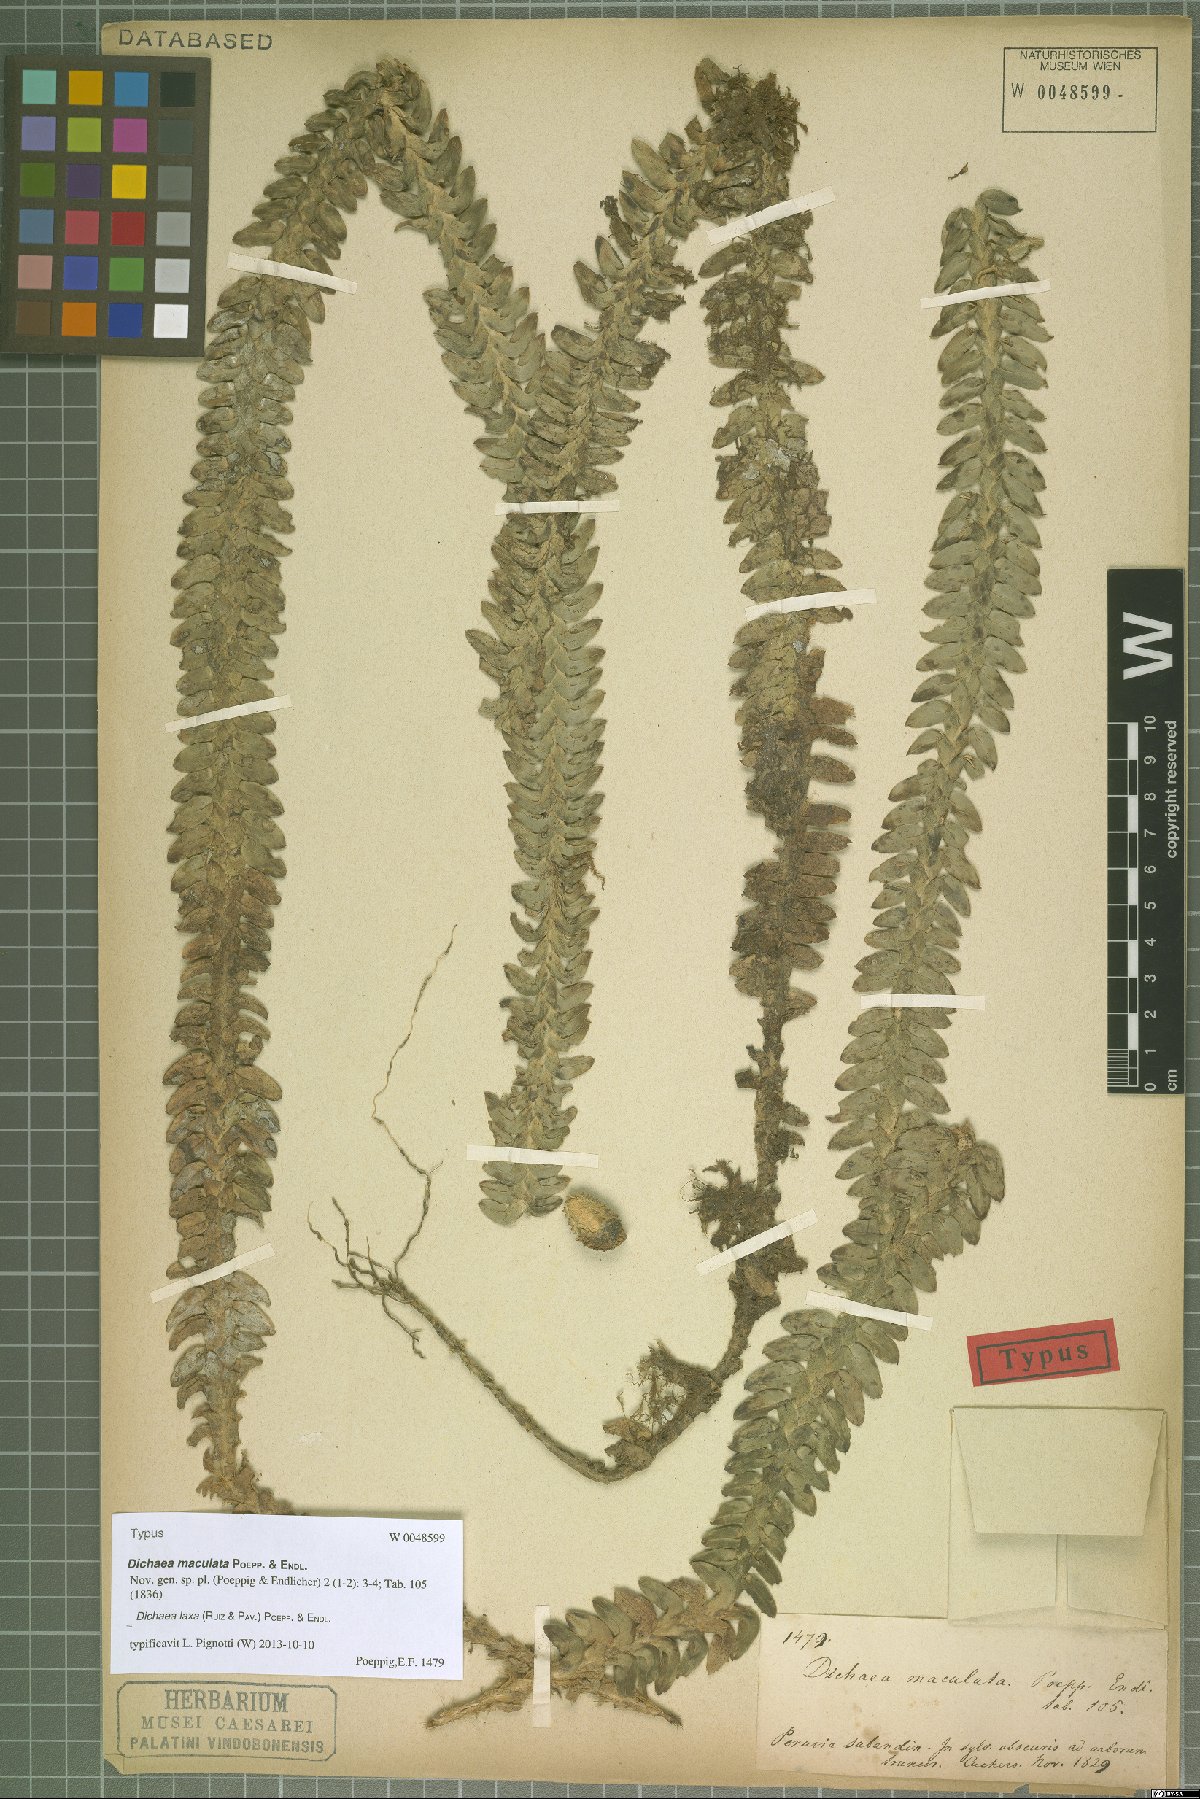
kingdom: Plantae
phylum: Tracheophyta
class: Liliopsida
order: Asparagales
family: Orchidaceae
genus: Dichaea
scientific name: Dichaea laxa
